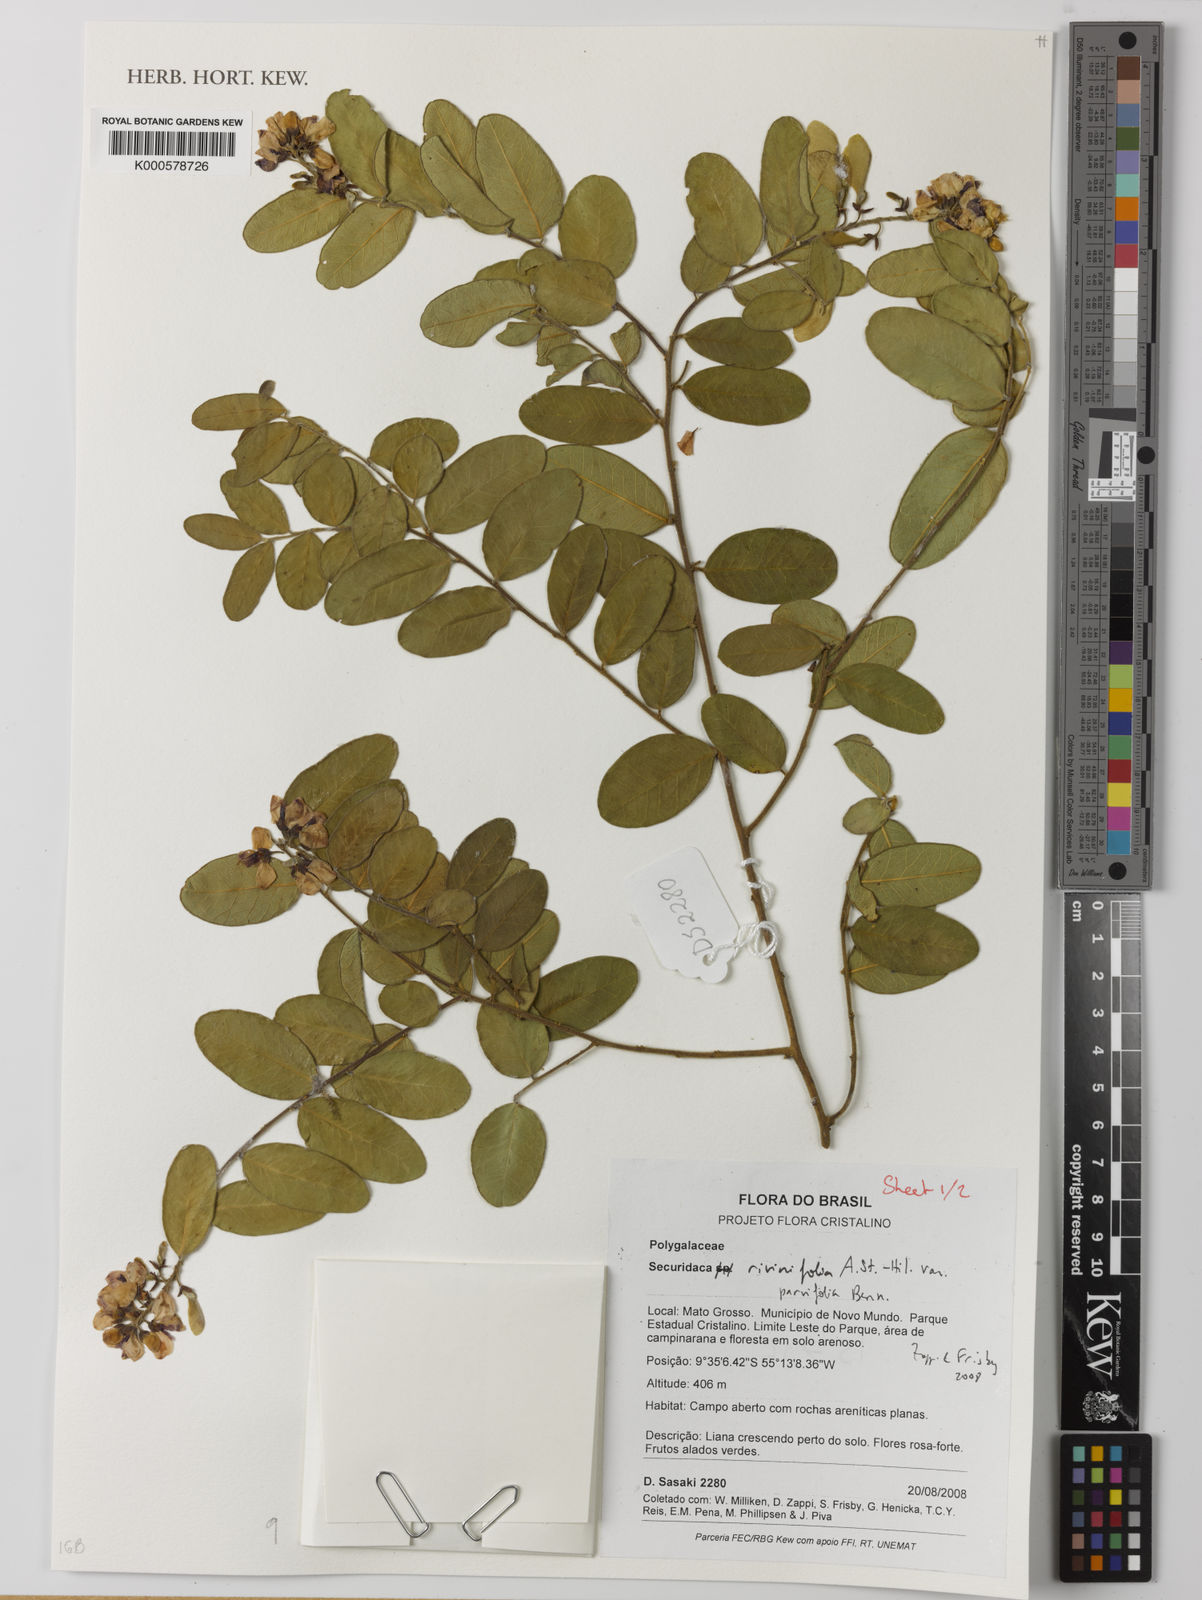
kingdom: Plantae
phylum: Tracheophyta
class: Magnoliopsida
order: Fabales
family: Polygalaceae
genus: Securidaca
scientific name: Securidaca rivinifolia
